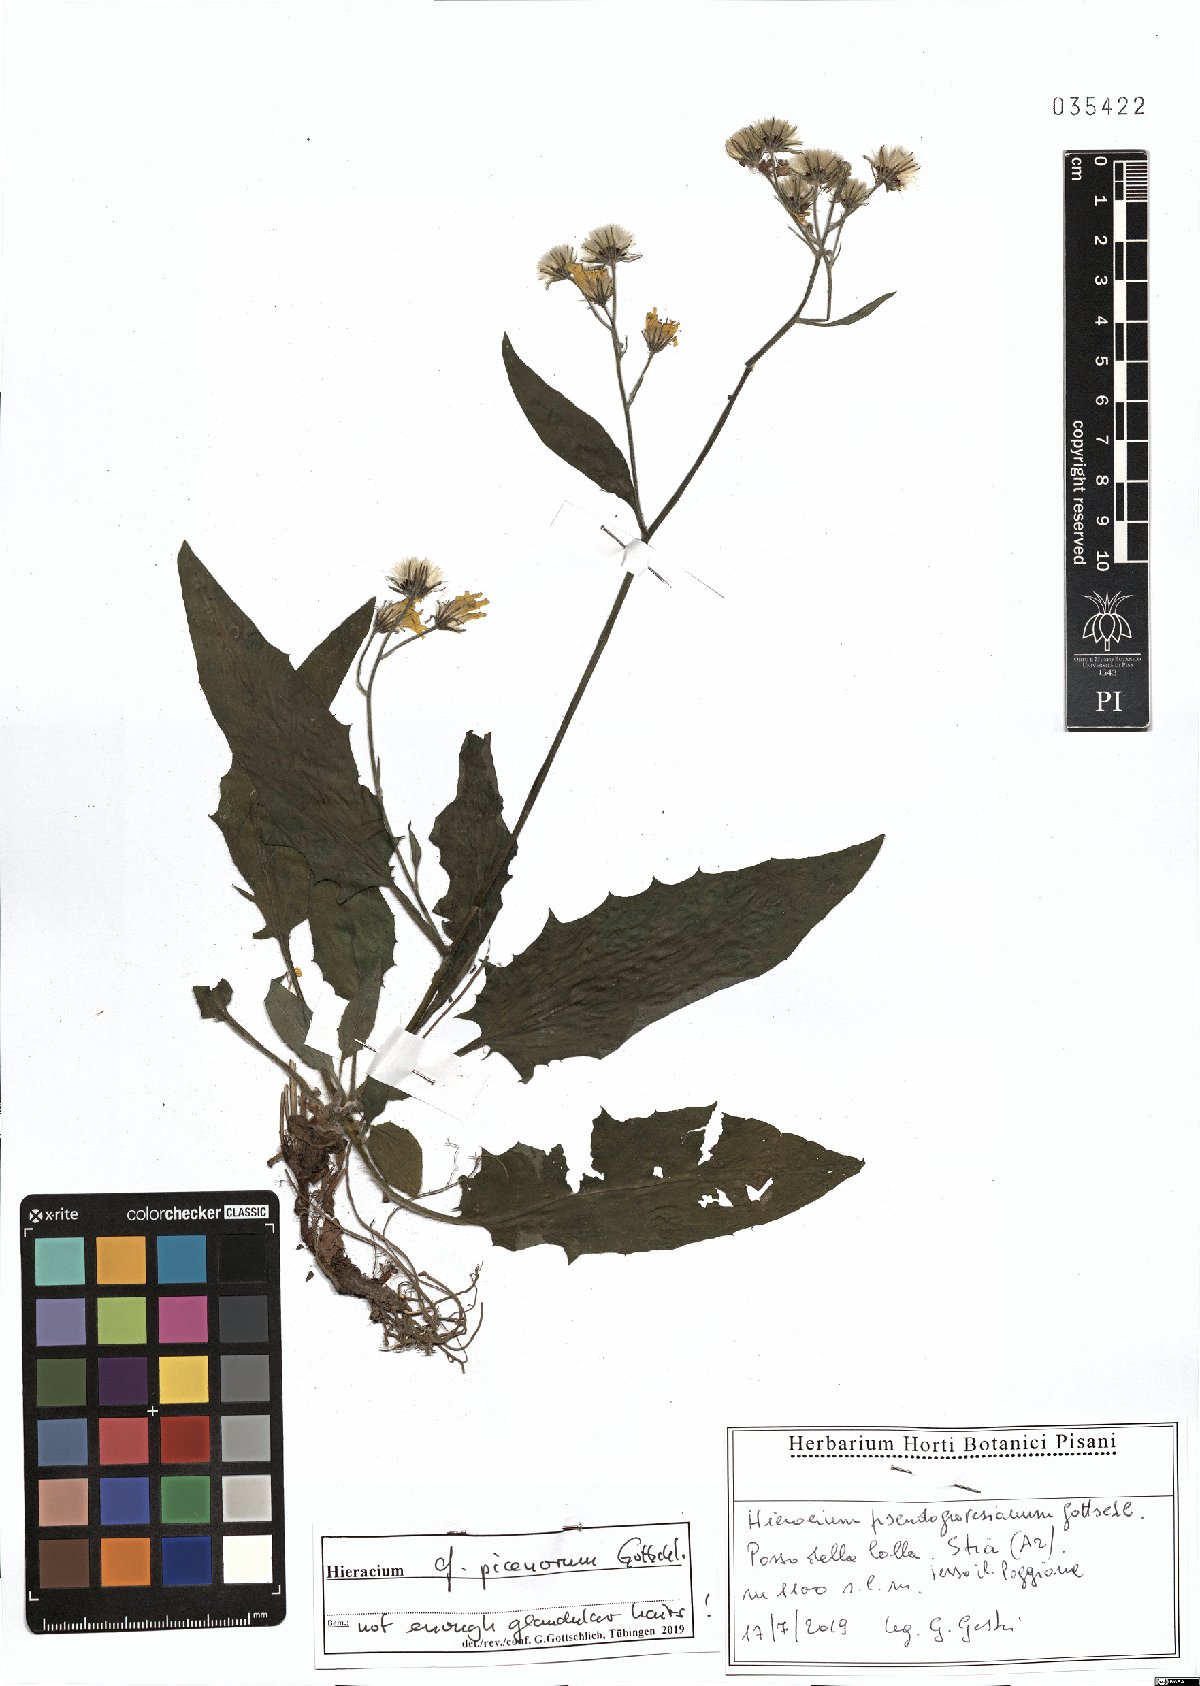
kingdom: Plantae
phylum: Tracheophyta
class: Magnoliopsida
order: Asterales
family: Asteraceae
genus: Hieracium
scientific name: Hieracium picenorum
